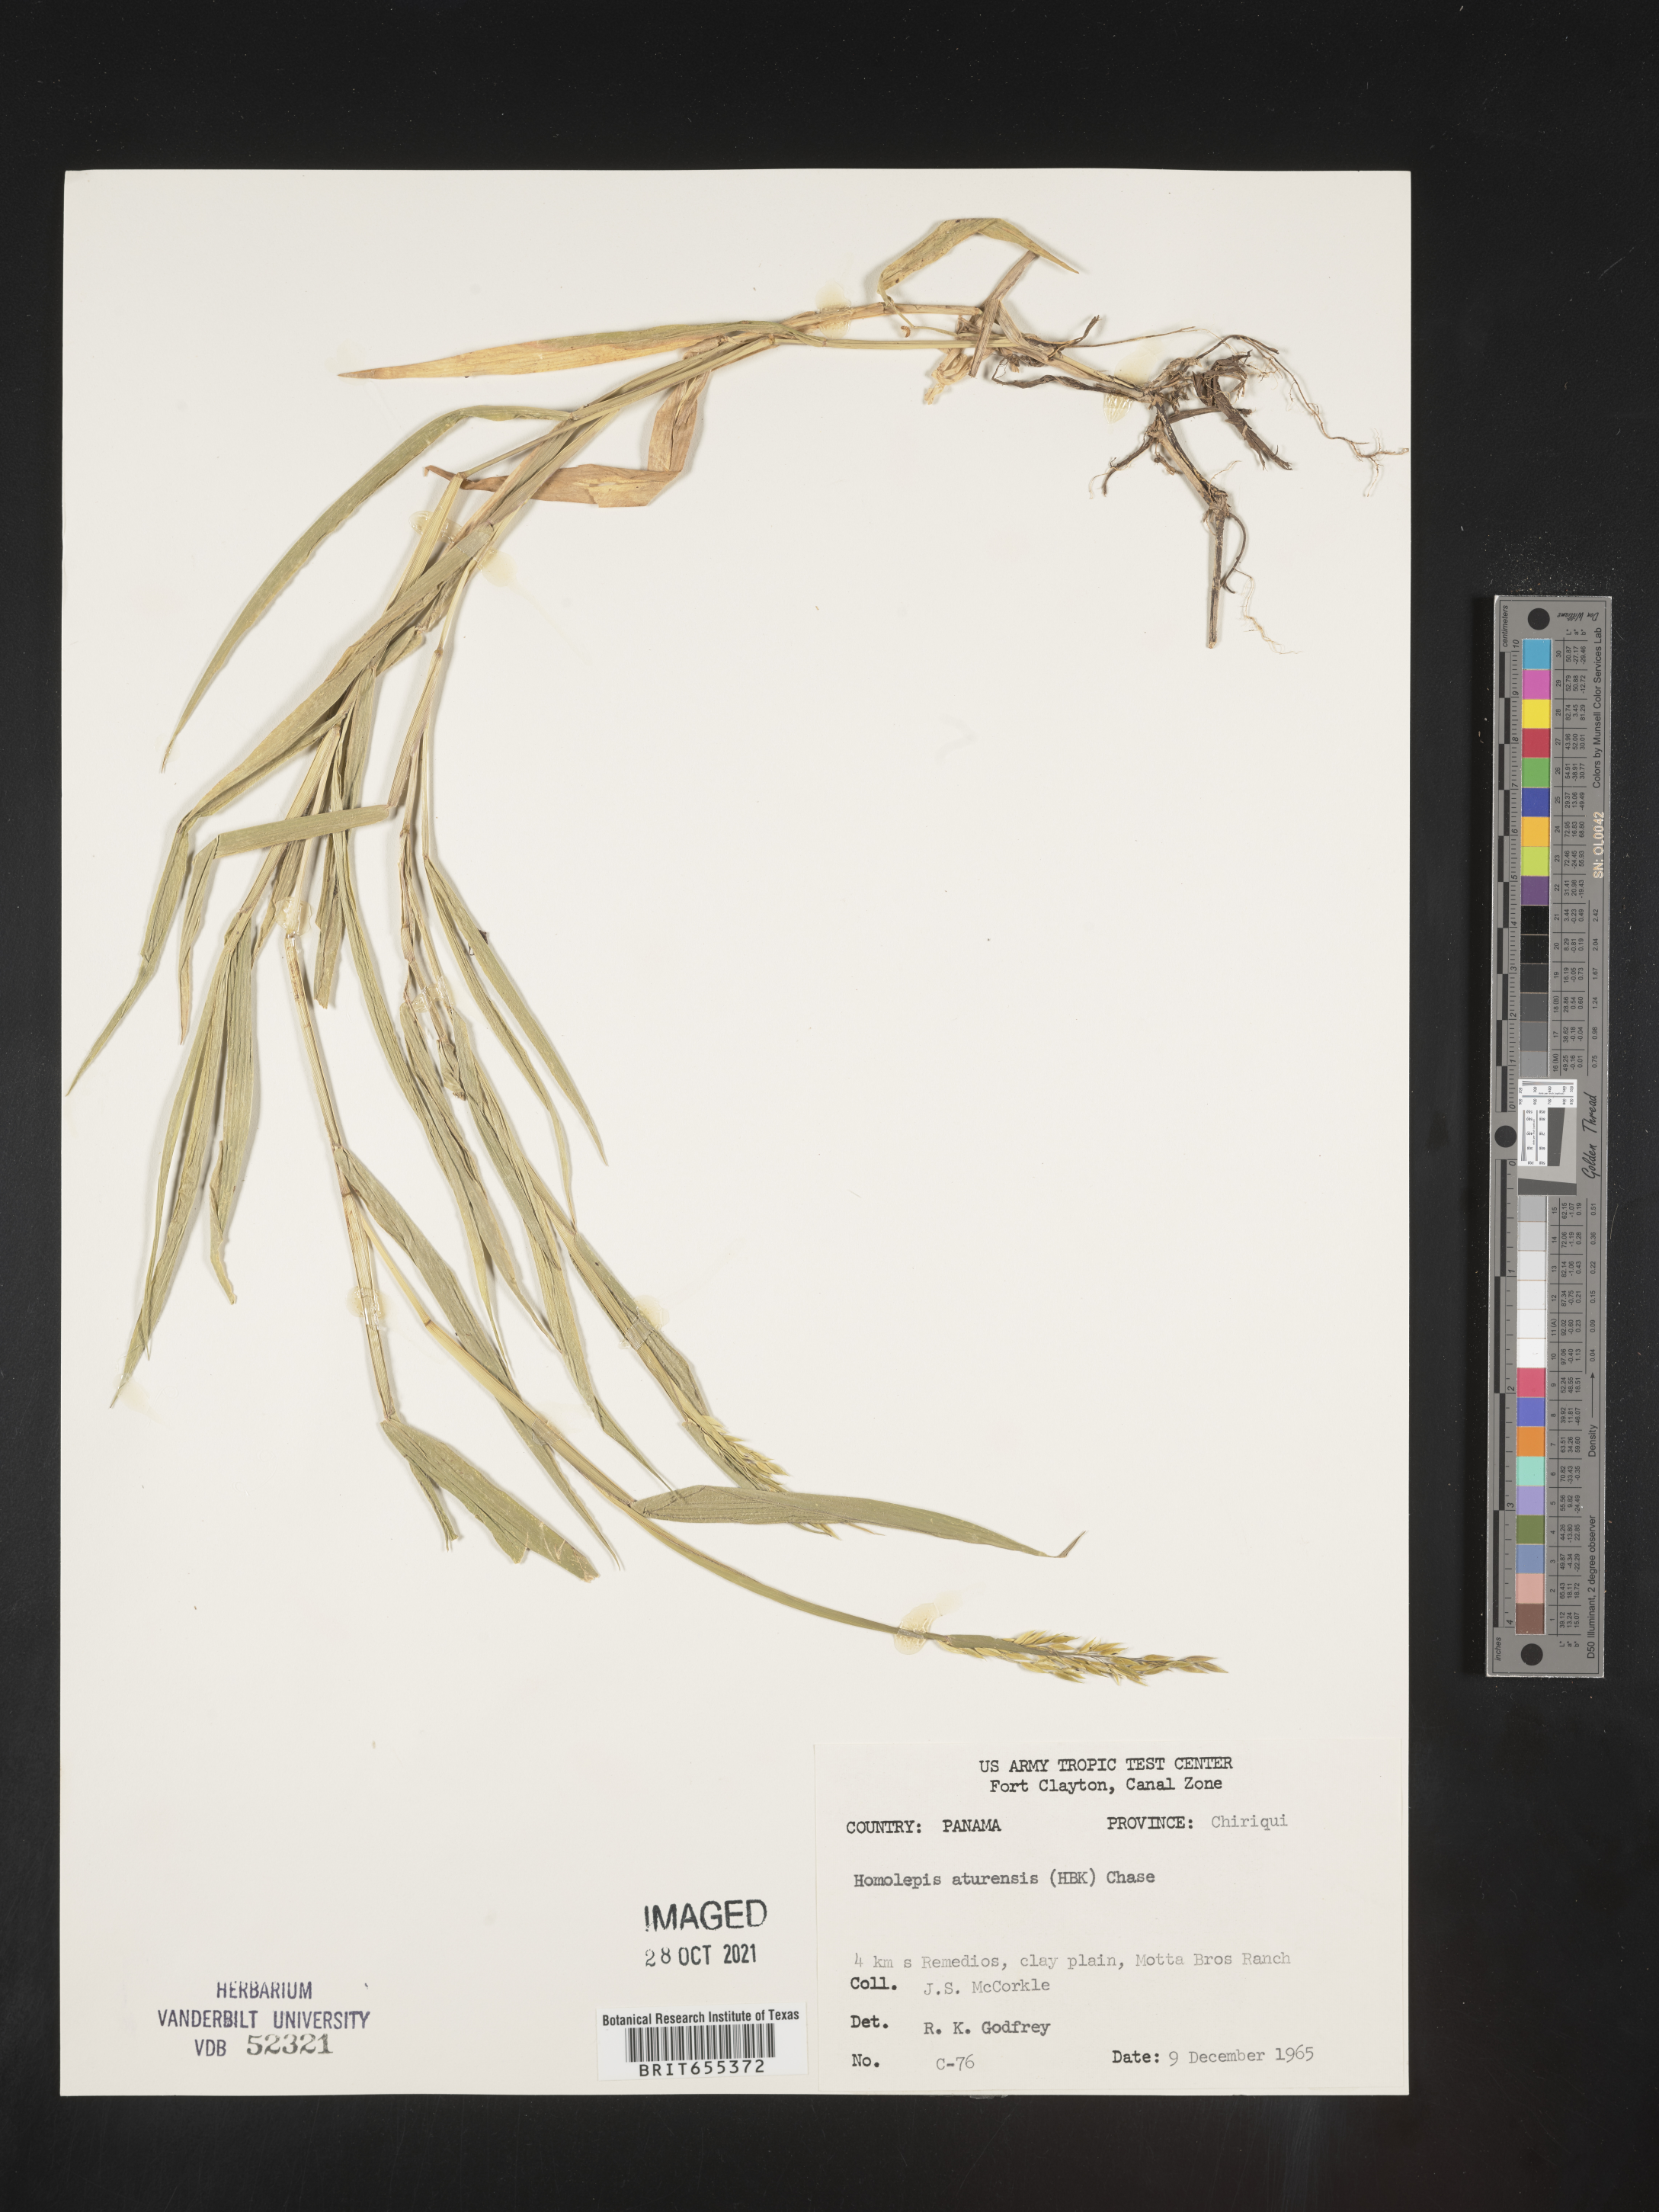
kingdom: Plantae
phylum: Tracheophyta
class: Liliopsida
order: Poales
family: Poaceae
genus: Homolepis
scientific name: Homolepis
